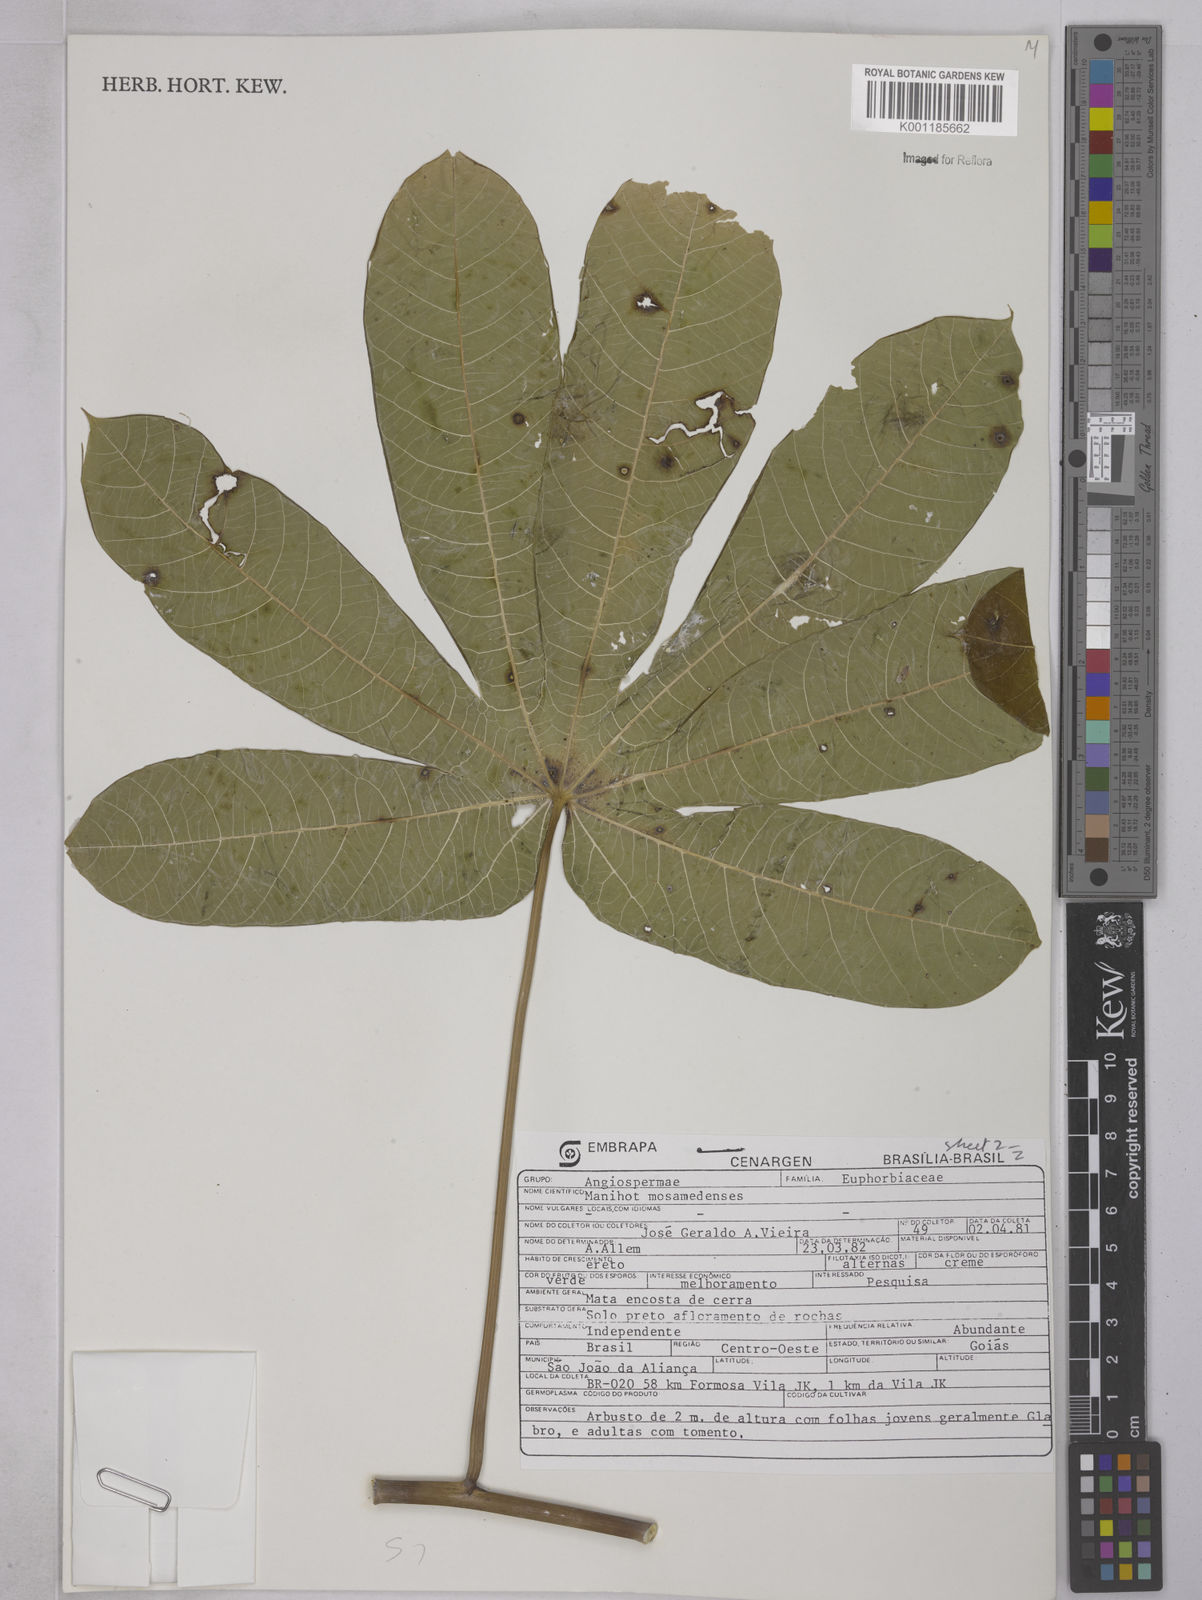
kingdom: Plantae
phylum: Tracheophyta
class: Magnoliopsida
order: Malpighiales
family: Euphorbiaceae
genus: Manihot
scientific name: Manihot mossamedensis
